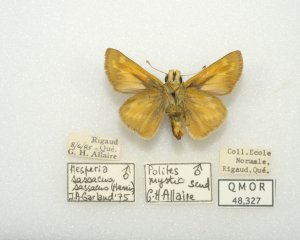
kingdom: Animalia
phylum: Arthropoda
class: Insecta
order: Lepidoptera
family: Hesperiidae
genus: Hesperia
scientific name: Hesperia sassacus
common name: Sassacus Skipper
